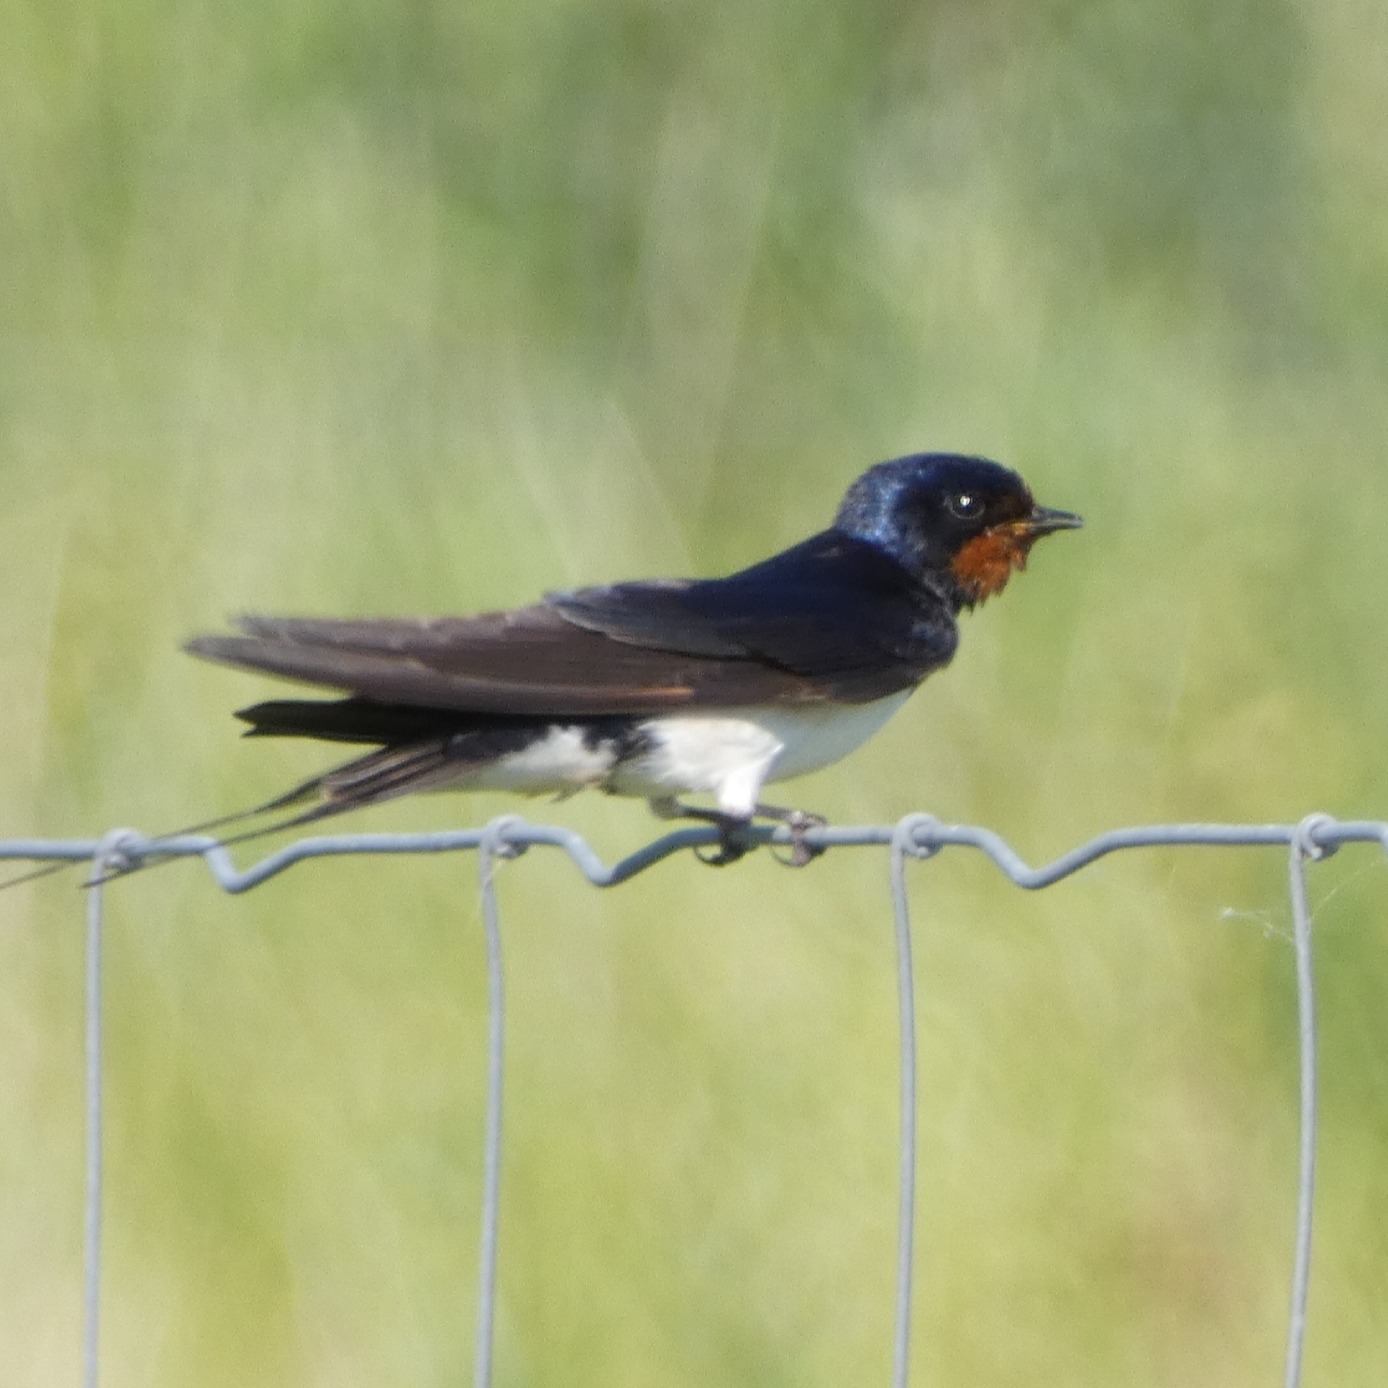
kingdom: Animalia
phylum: Chordata
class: Aves
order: Passeriformes
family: Hirundinidae
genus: Hirundo
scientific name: Hirundo rustica
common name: Landsvale
